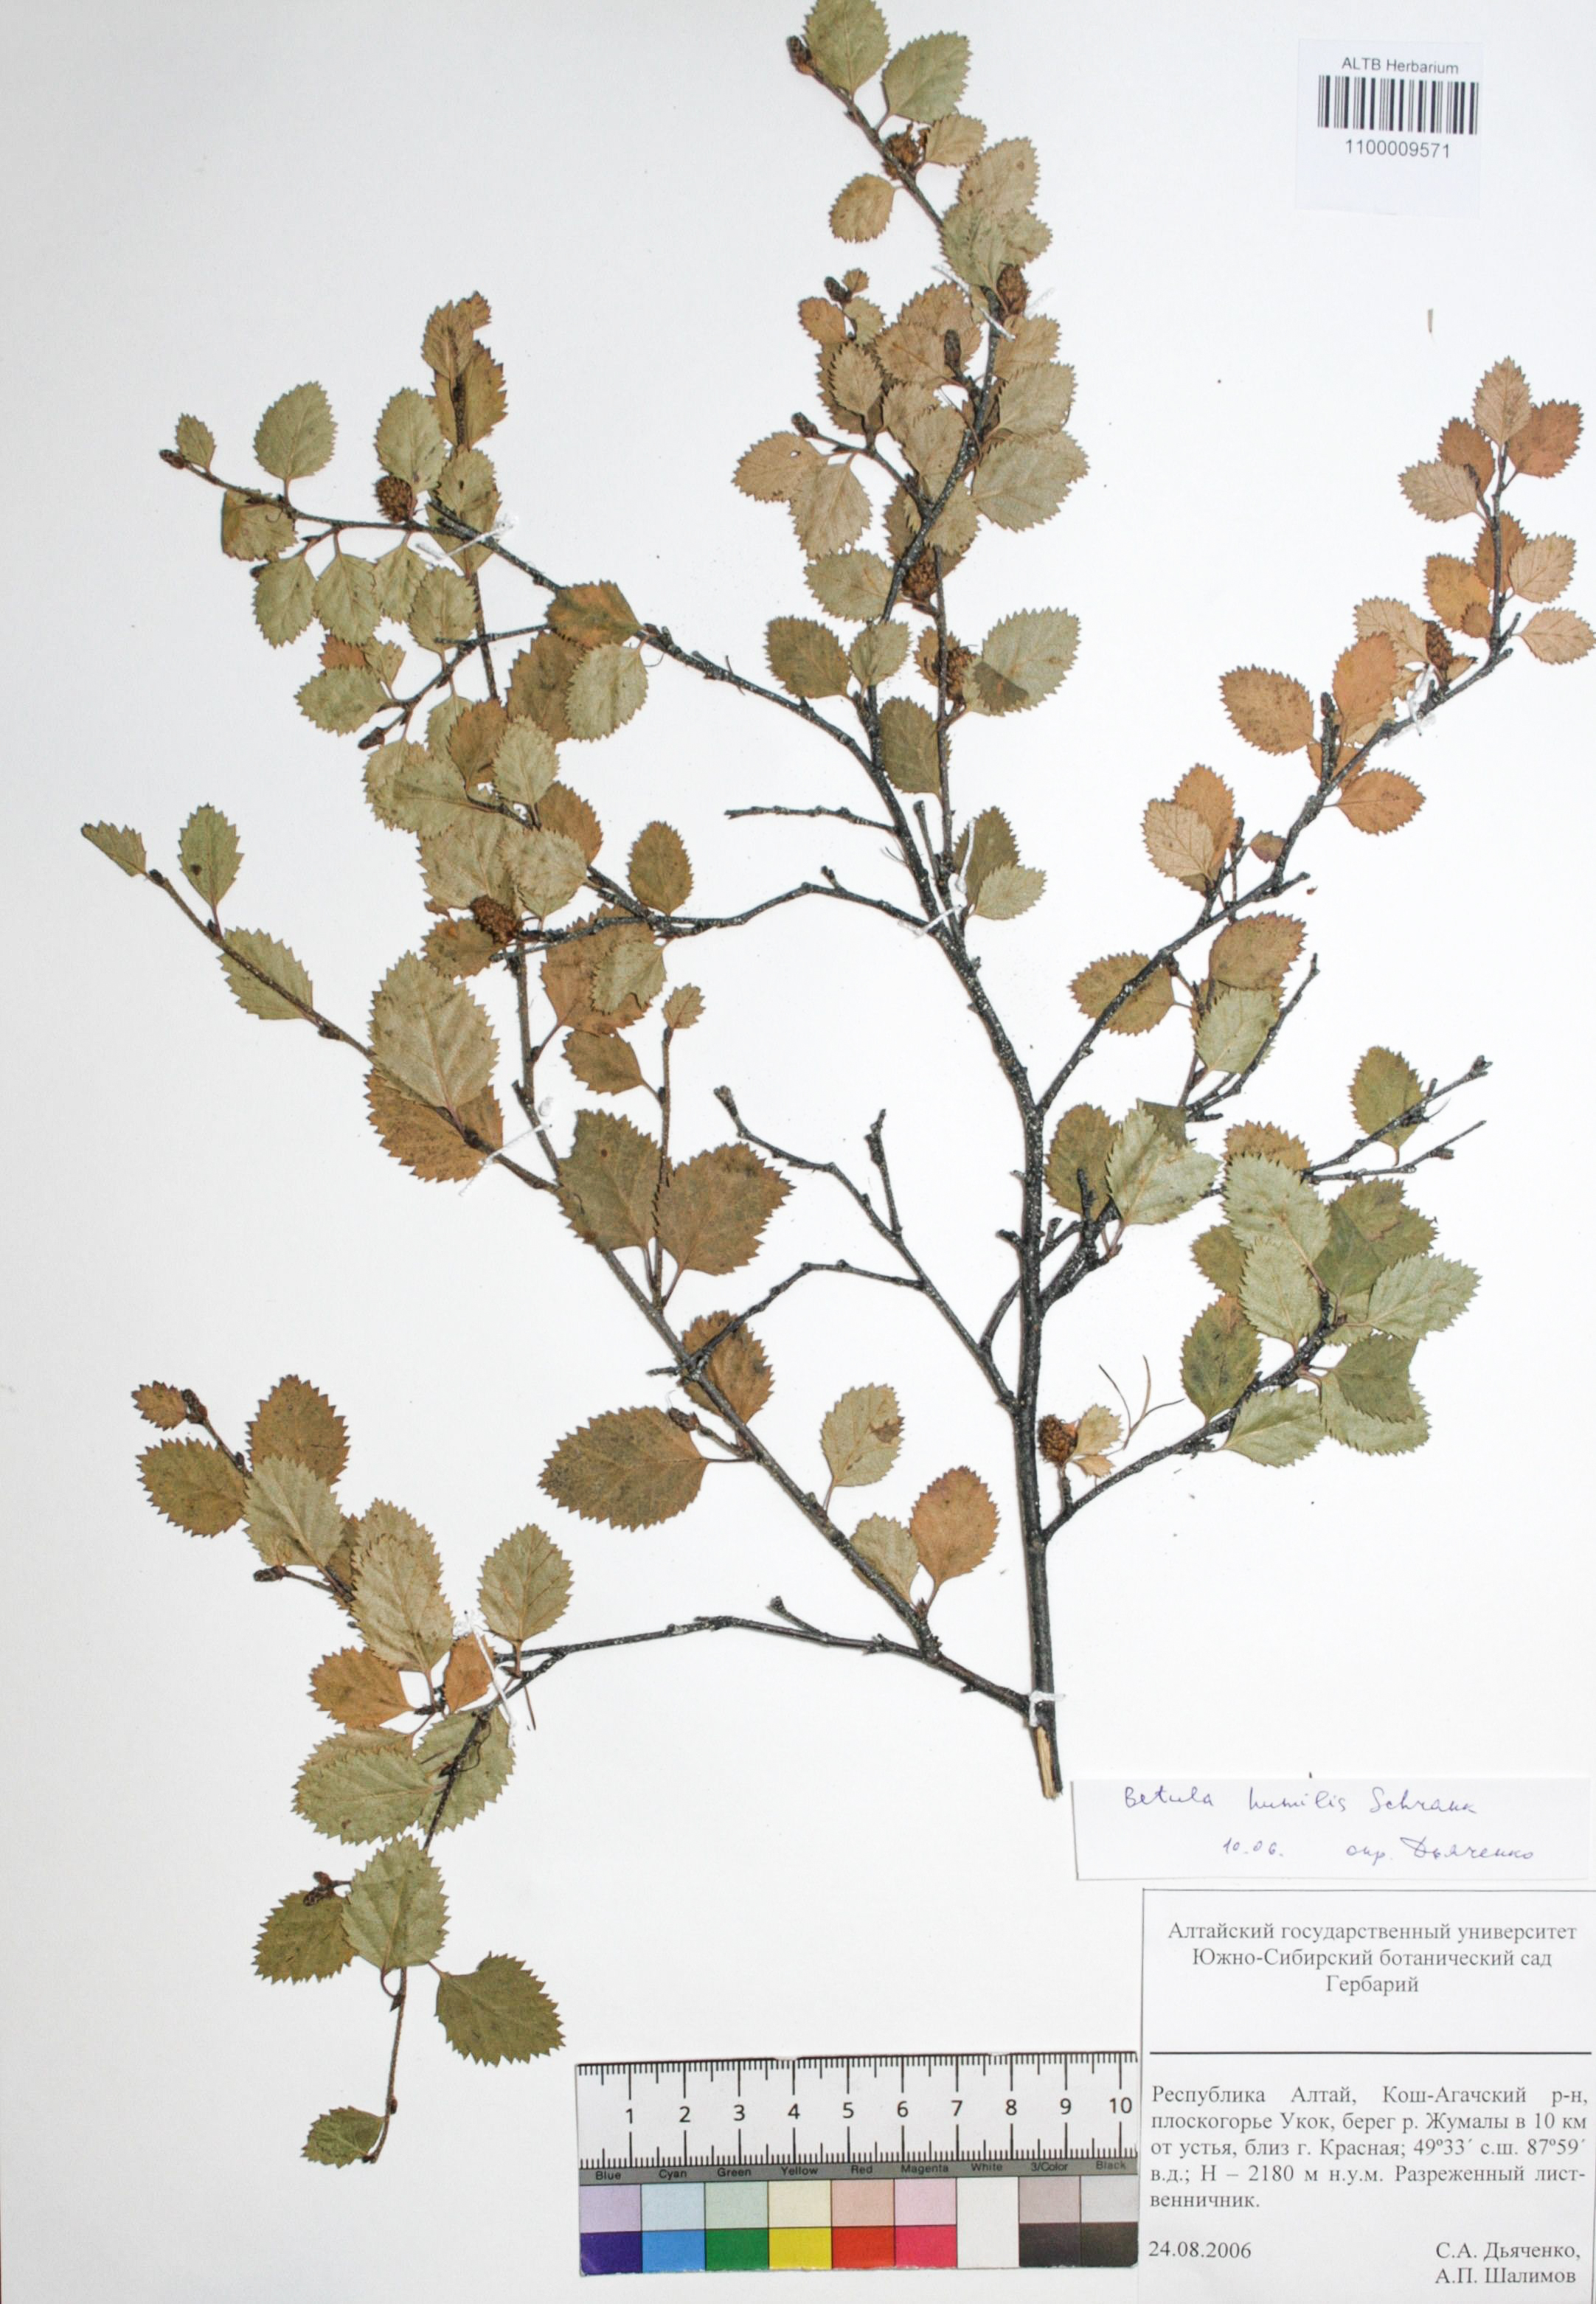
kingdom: Plantae
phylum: Tracheophyta
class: Magnoliopsida
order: Fagales
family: Betulaceae
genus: Betula
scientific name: Betula humilis
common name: Shrubby birch
